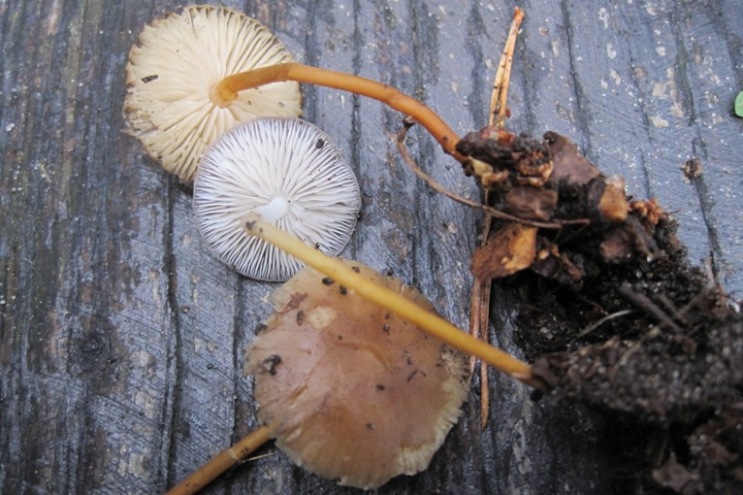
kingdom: Fungi
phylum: Basidiomycota
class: Agaricomycetes
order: Agaricales
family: Physalacriaceae
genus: Strobilurus
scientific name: Strobilurus tenacellus
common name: sommer-koglehat
